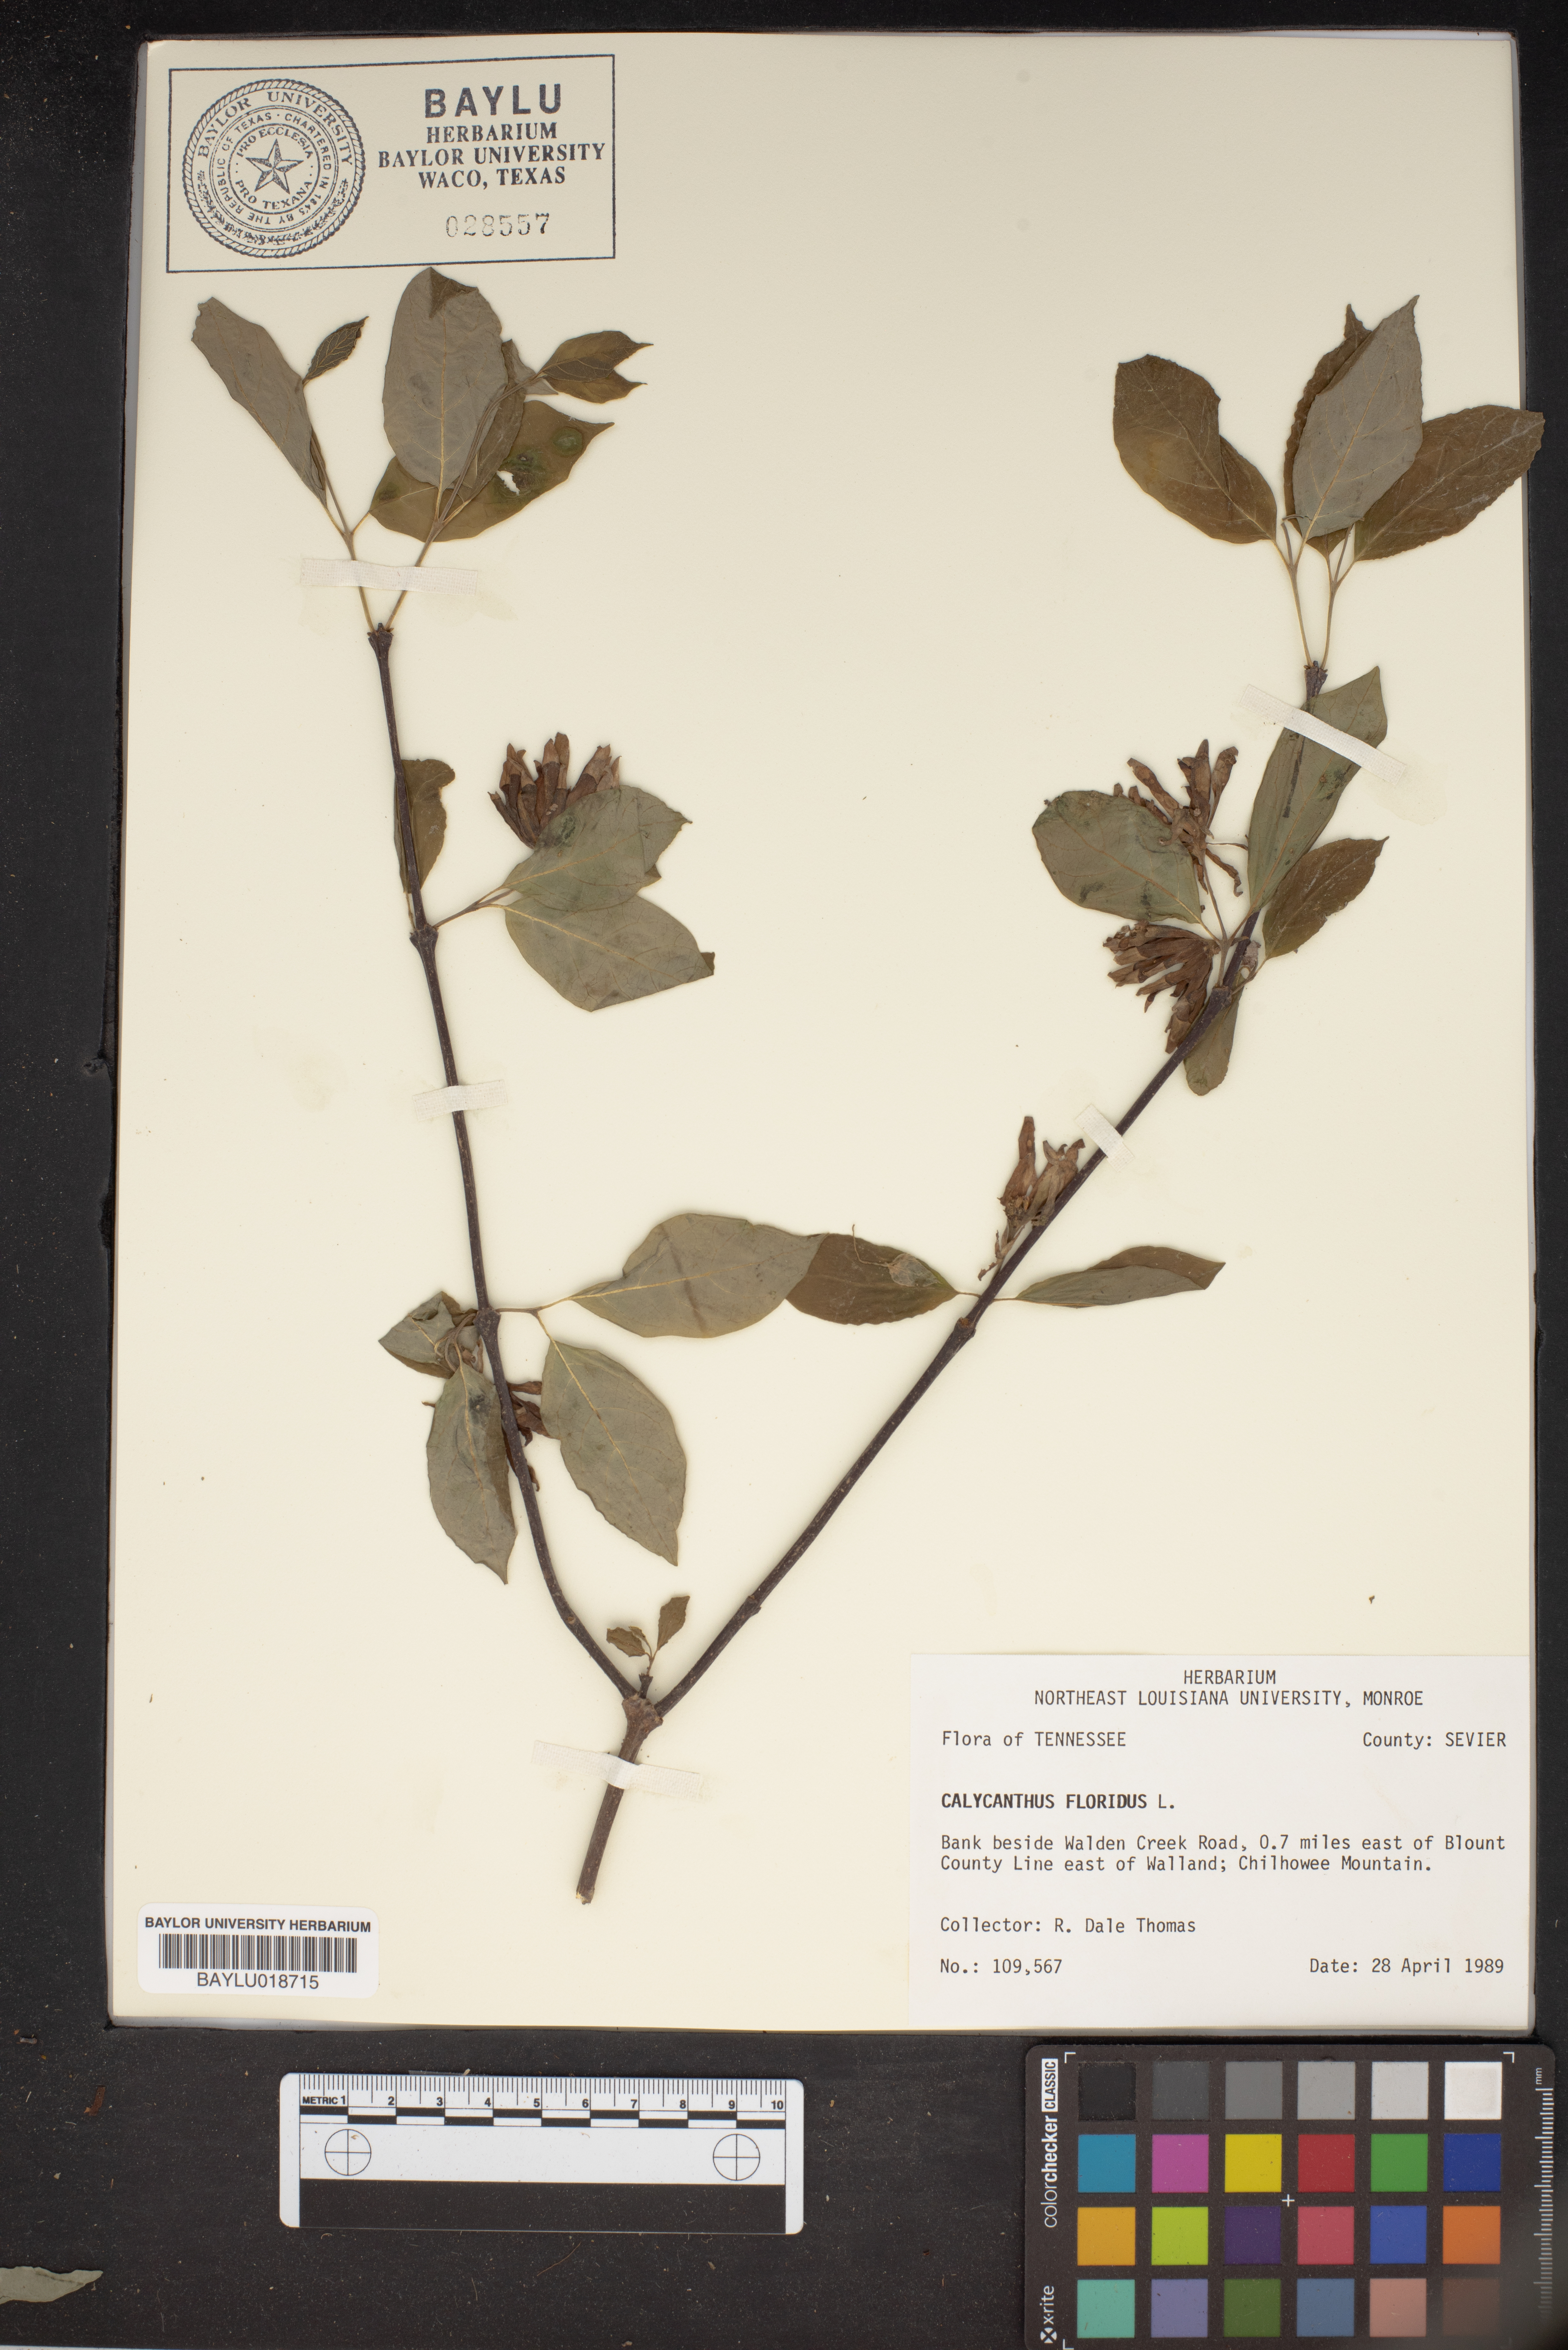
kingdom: Plantae
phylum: Tracheophyta
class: Magnoliopsida
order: Laurales
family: Calycanthaceae
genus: Calycanthus
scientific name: Calycanthus floridus
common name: Carolina-allspice
